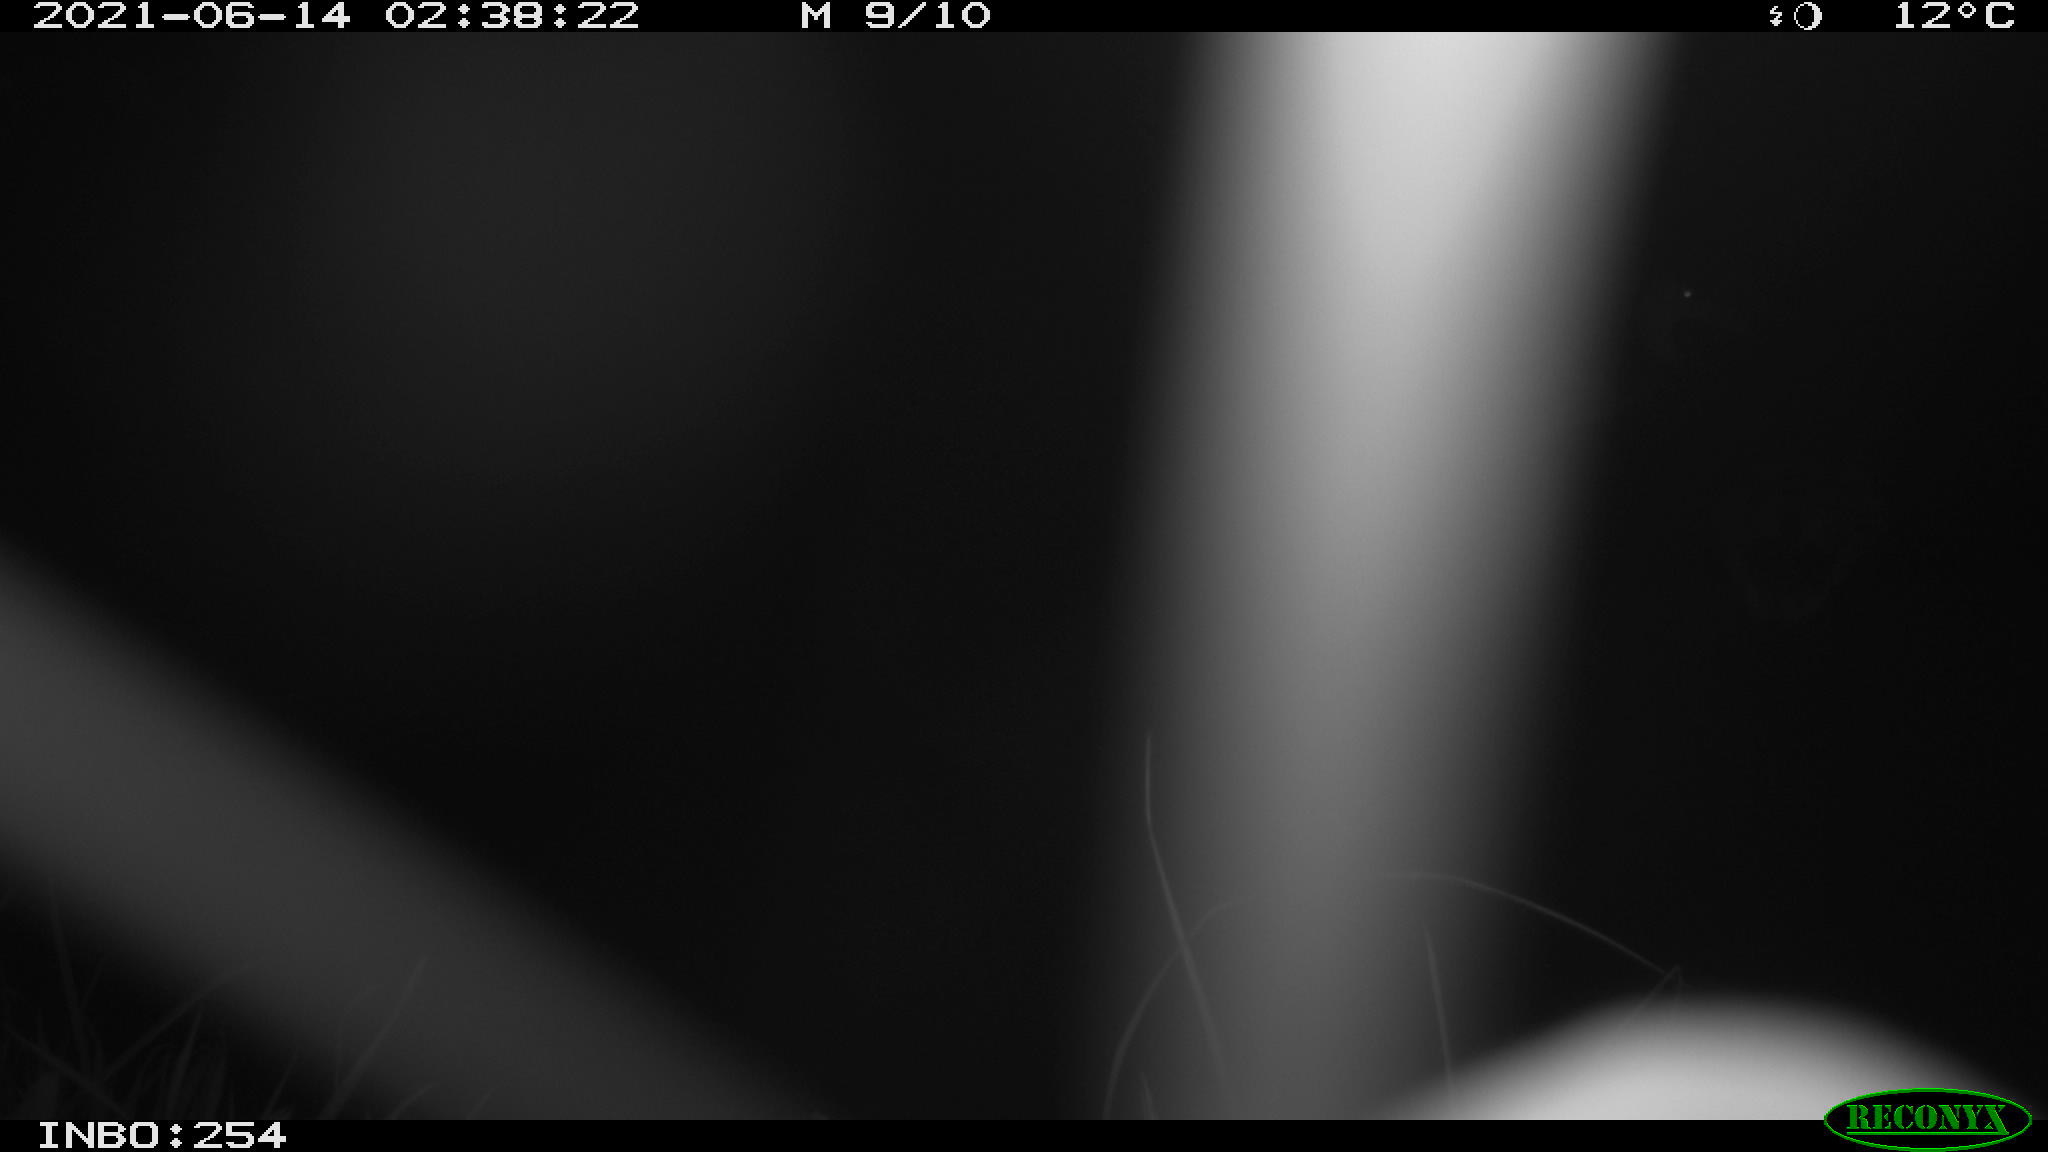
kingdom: Animalia
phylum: Chordata
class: Aves
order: Anseriformes
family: Anatidae
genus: Anas
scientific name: Anas platyrhynchos
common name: Mallard
